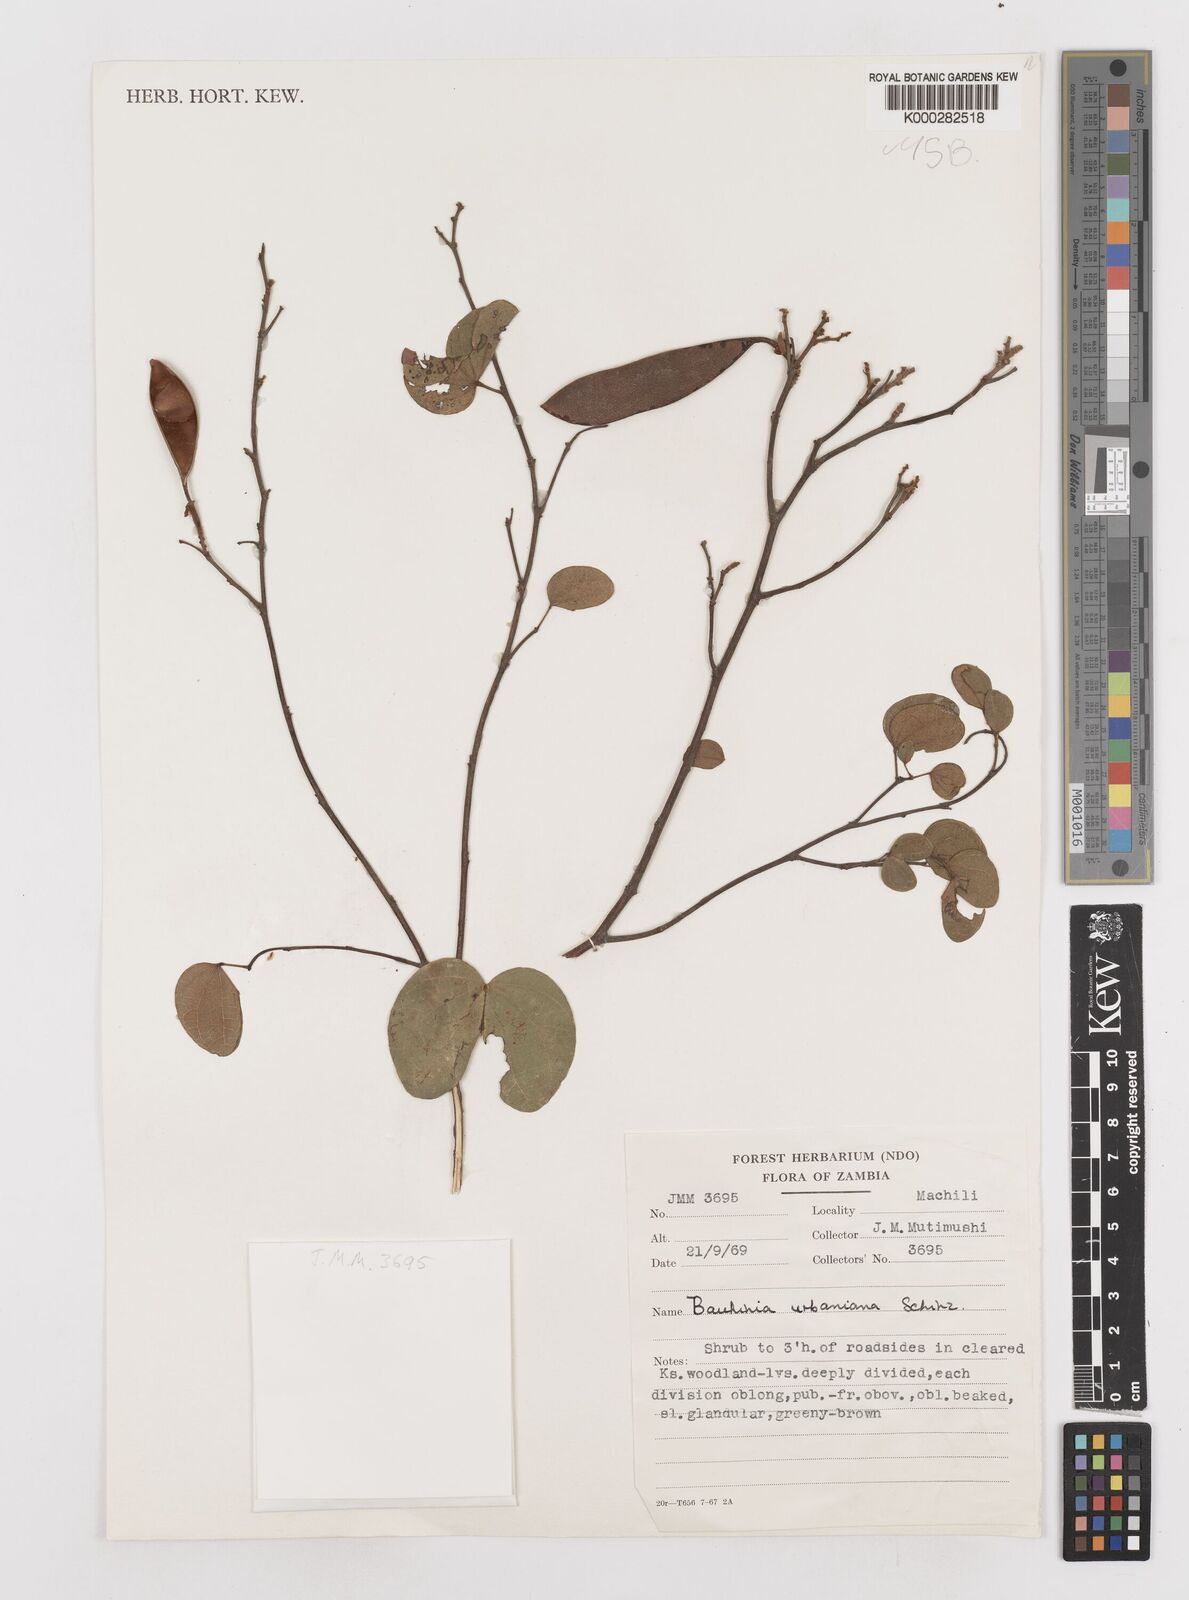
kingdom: Plantae
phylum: Tracheophyta
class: Magnoliopsida
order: Fabales
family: Fabaceae
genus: Bauhinia
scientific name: Bauhinia urbaniana
